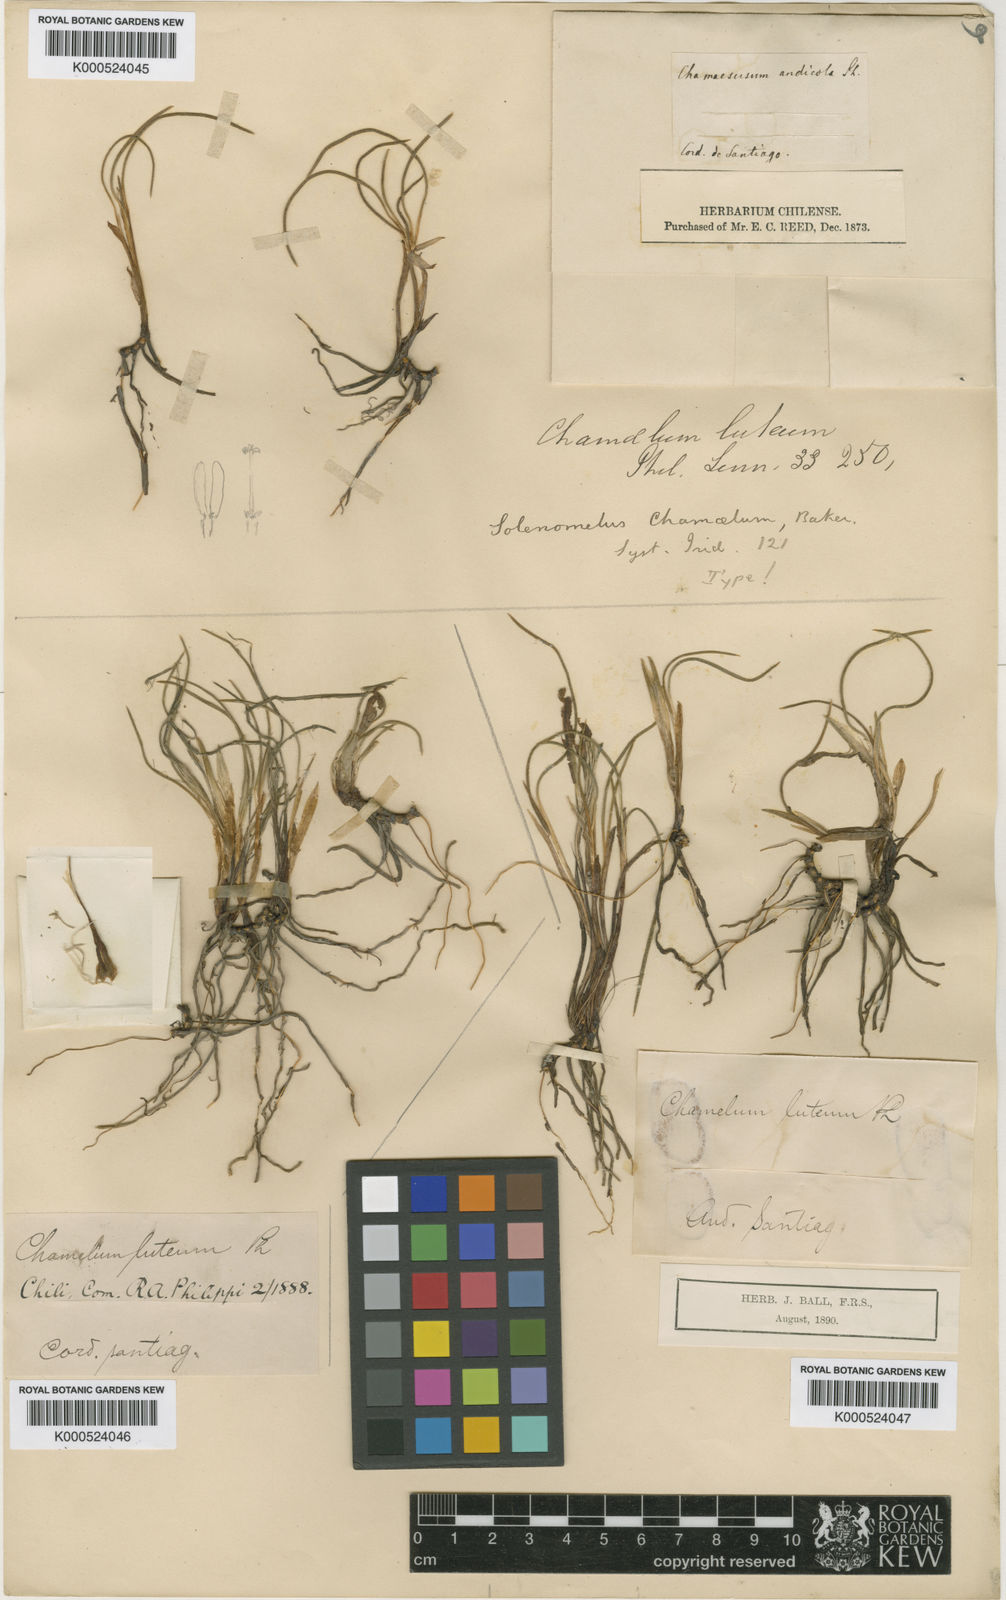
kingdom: Plantae
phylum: Tracheophyta
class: Liliopsida
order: Asparagales
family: Iridaceae
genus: Olsynium
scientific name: Olsynium chrysochromum
